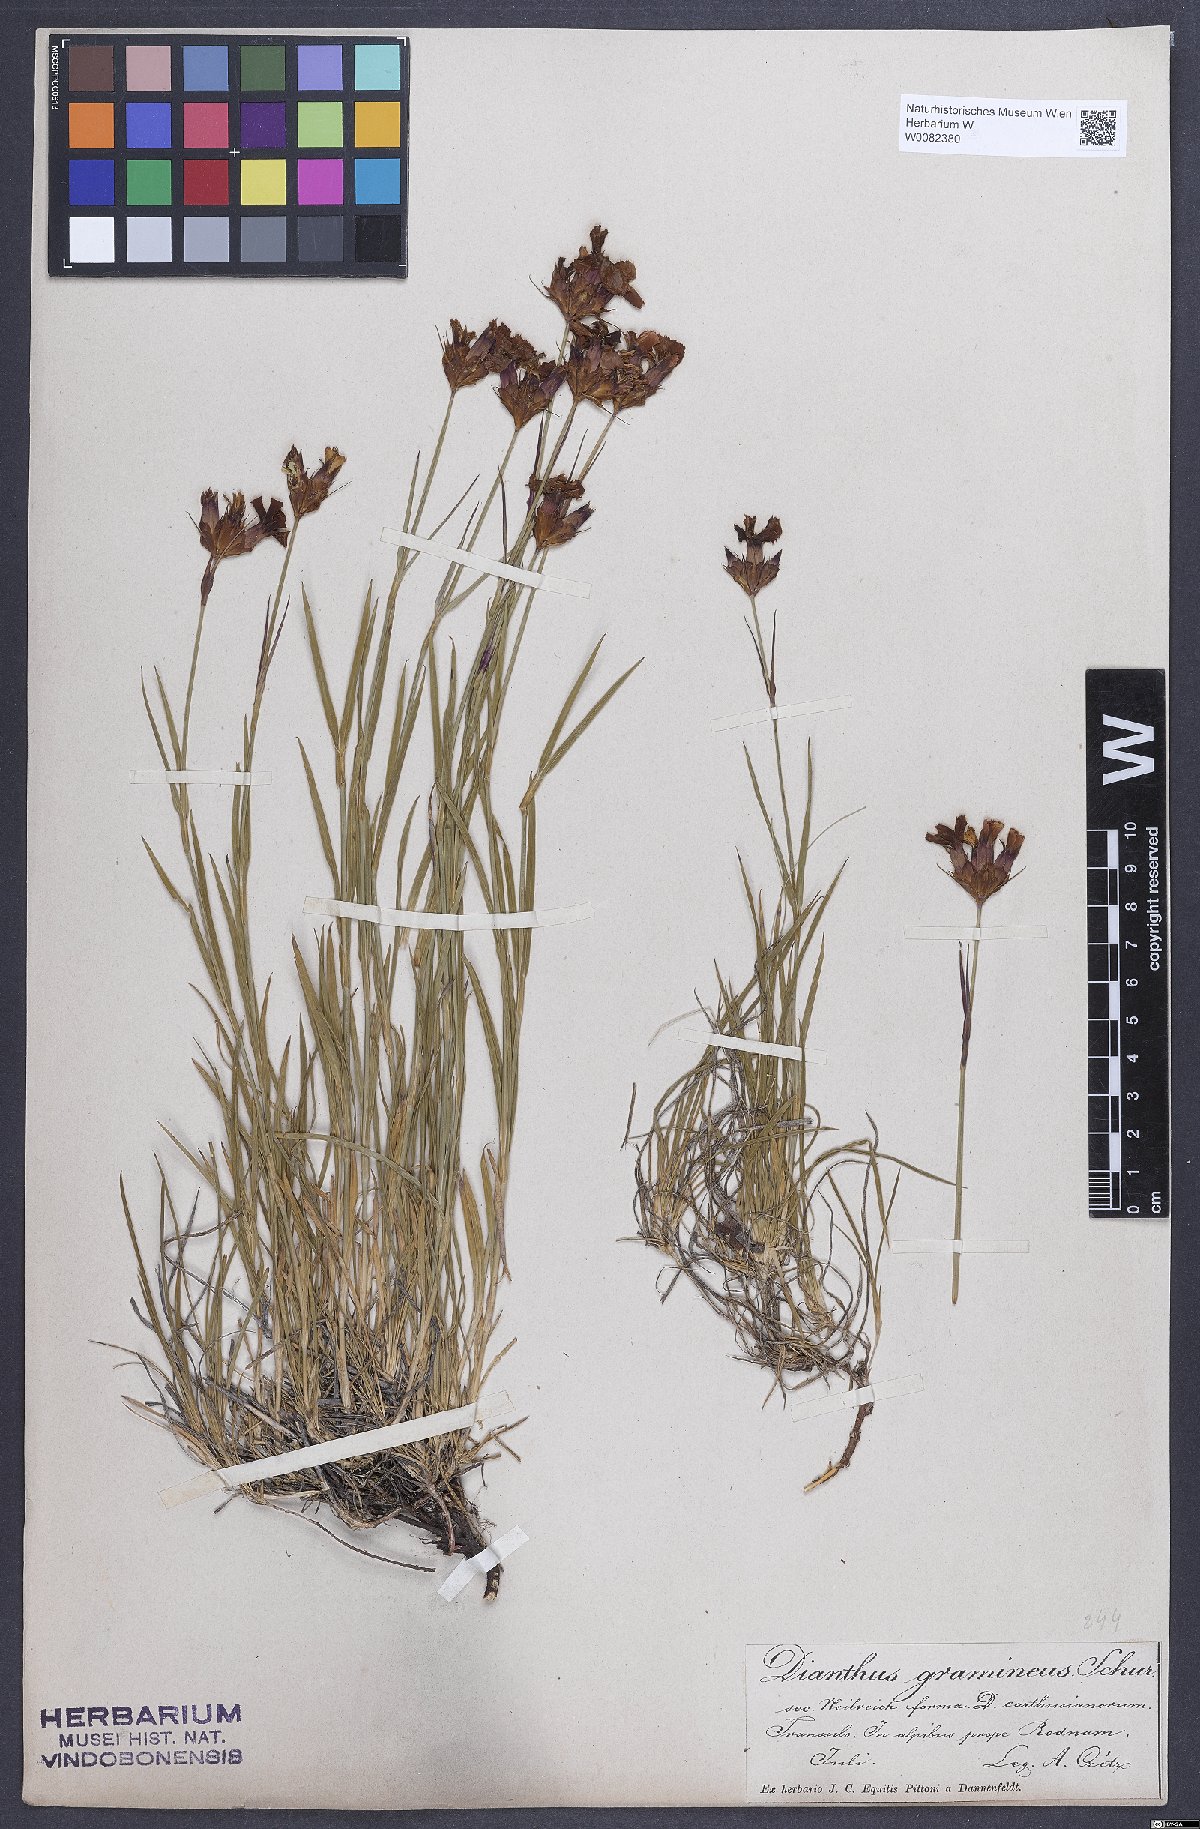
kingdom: Plantae
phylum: Tracheophyta
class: Magnoliopsida
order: Caryophyllales
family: Caryophyllaceae
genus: Dianthus
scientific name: Dianthus carthusianorum
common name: Carthusian pink
